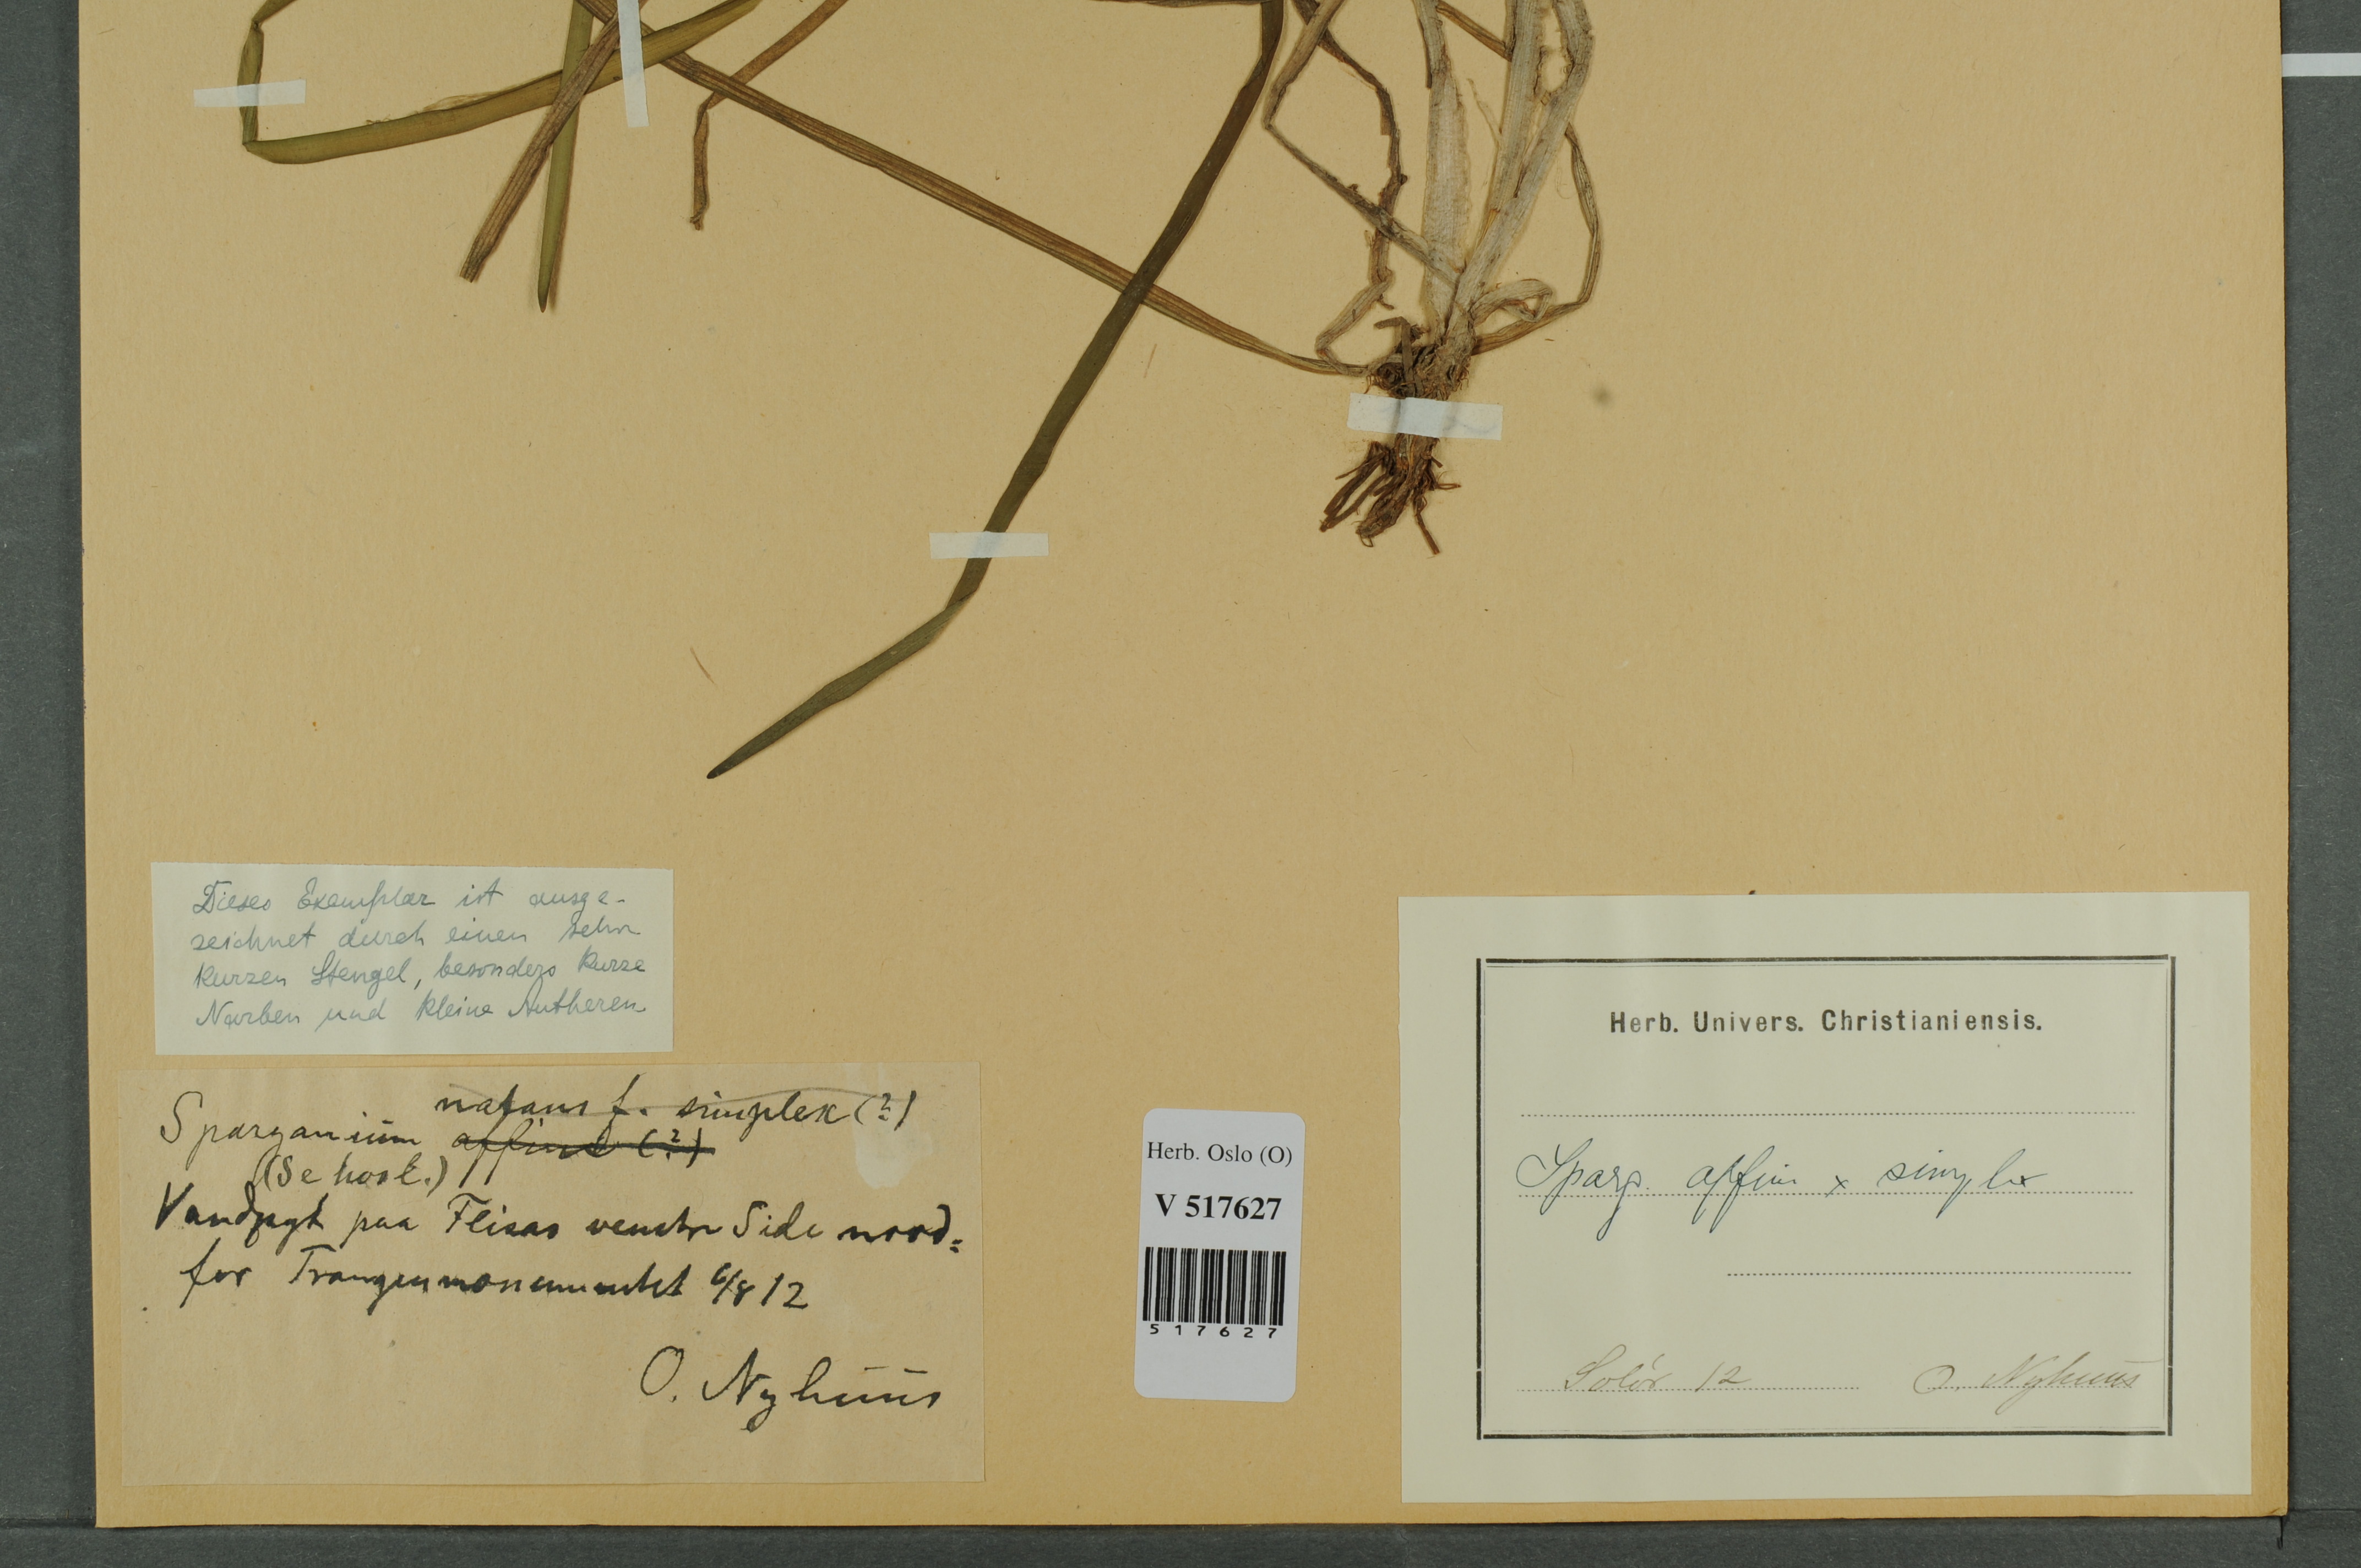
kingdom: Plantae
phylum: Tracheophyta
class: Liliopsida
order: Poales
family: Typhaceae
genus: Sparganium
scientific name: Sparganium
